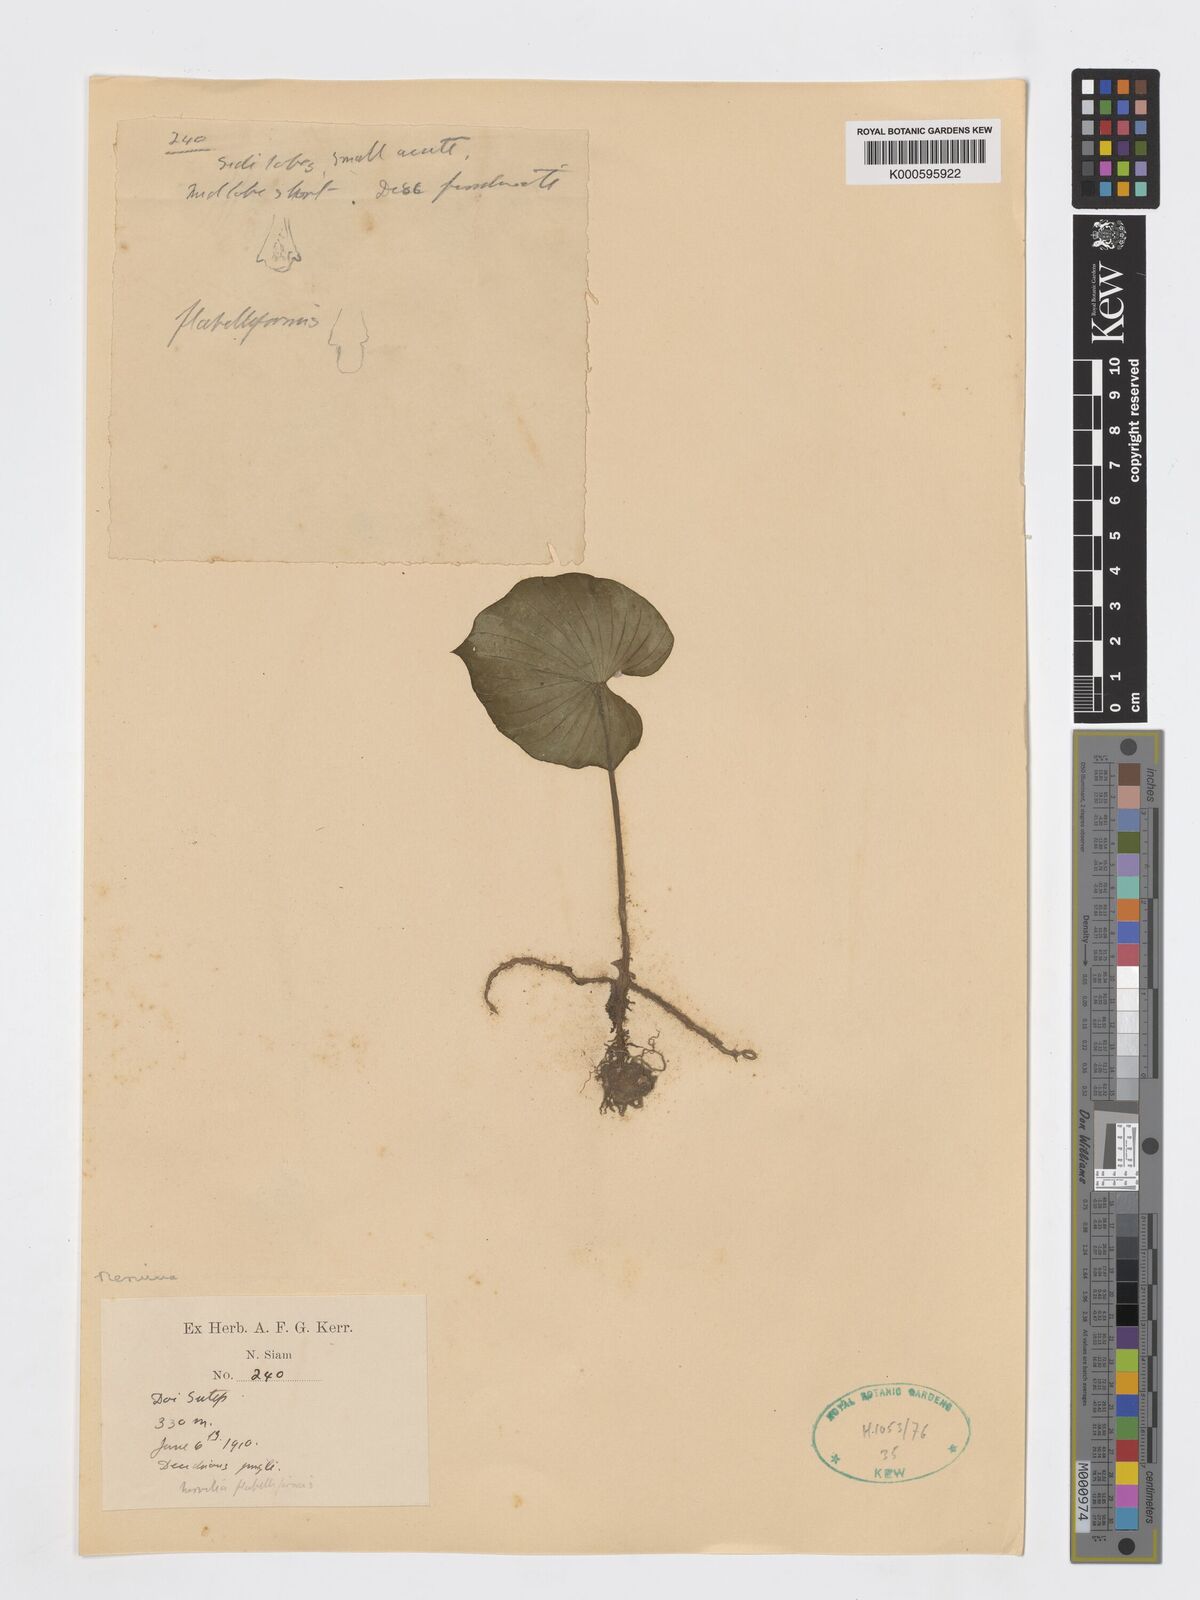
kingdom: Plantae
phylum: Tracheophyta
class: Liliopsida
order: Asparagales
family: Orchidaceae
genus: Nervilia
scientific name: Nervilia concolor
